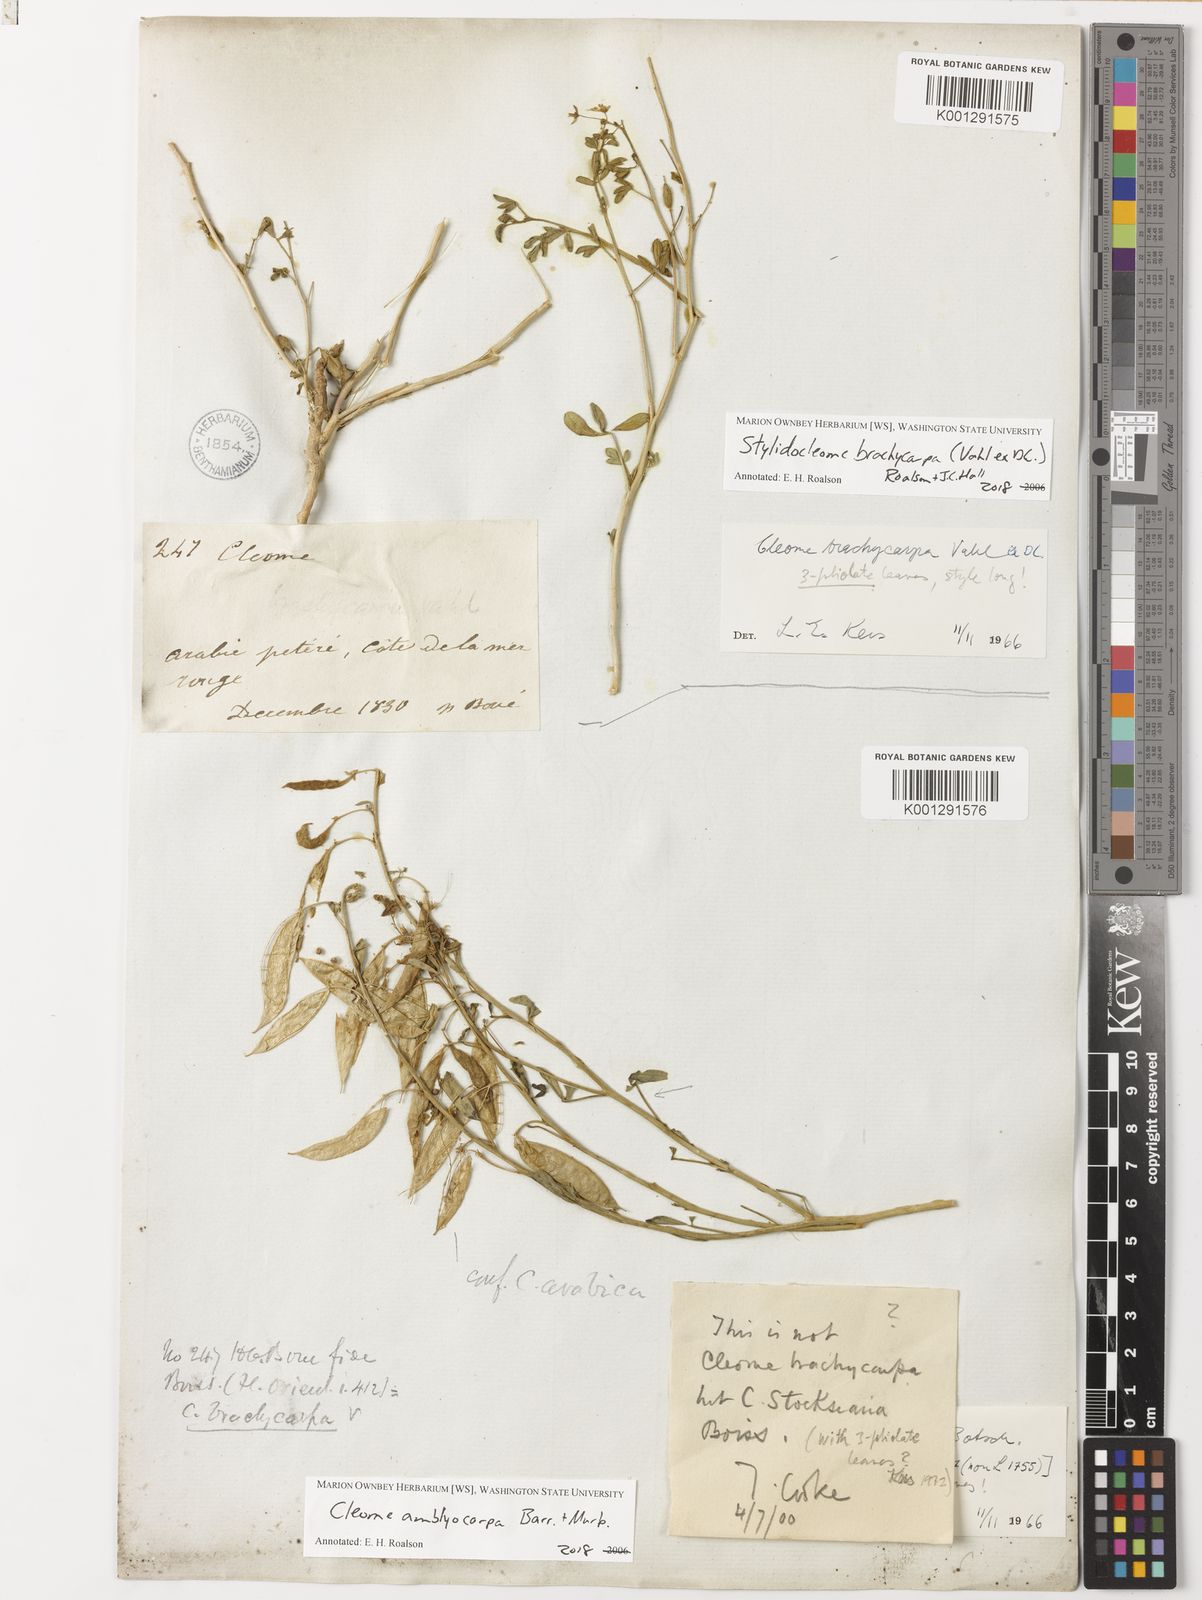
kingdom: Plantae
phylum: Tracheophyta
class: Magnoliopsida
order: Brassicales
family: Cleomaceae
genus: Stylidocleome
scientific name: Stylidocleome brachycarpa
